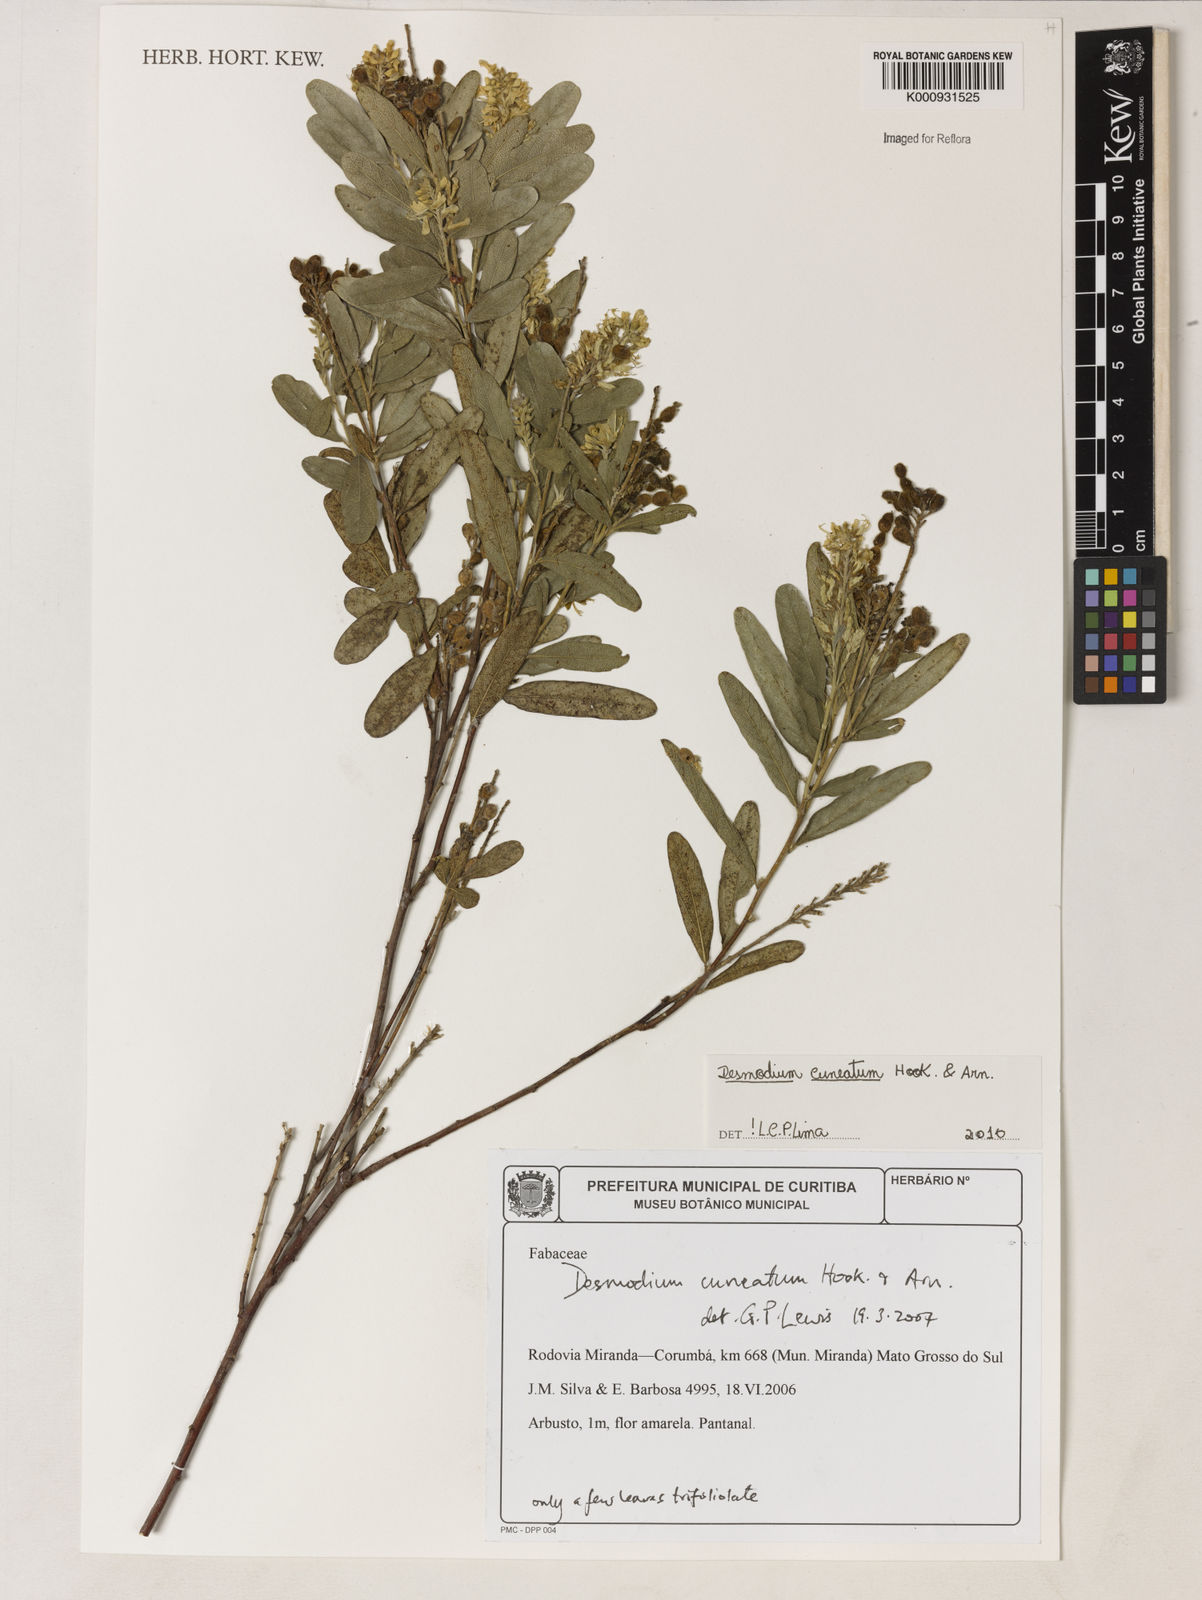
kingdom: Plantae
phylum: Tracheophyta
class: Magnoliopsida
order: Fabales
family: Fabaceae
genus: Desmodium
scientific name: Desmodium cuneatum
